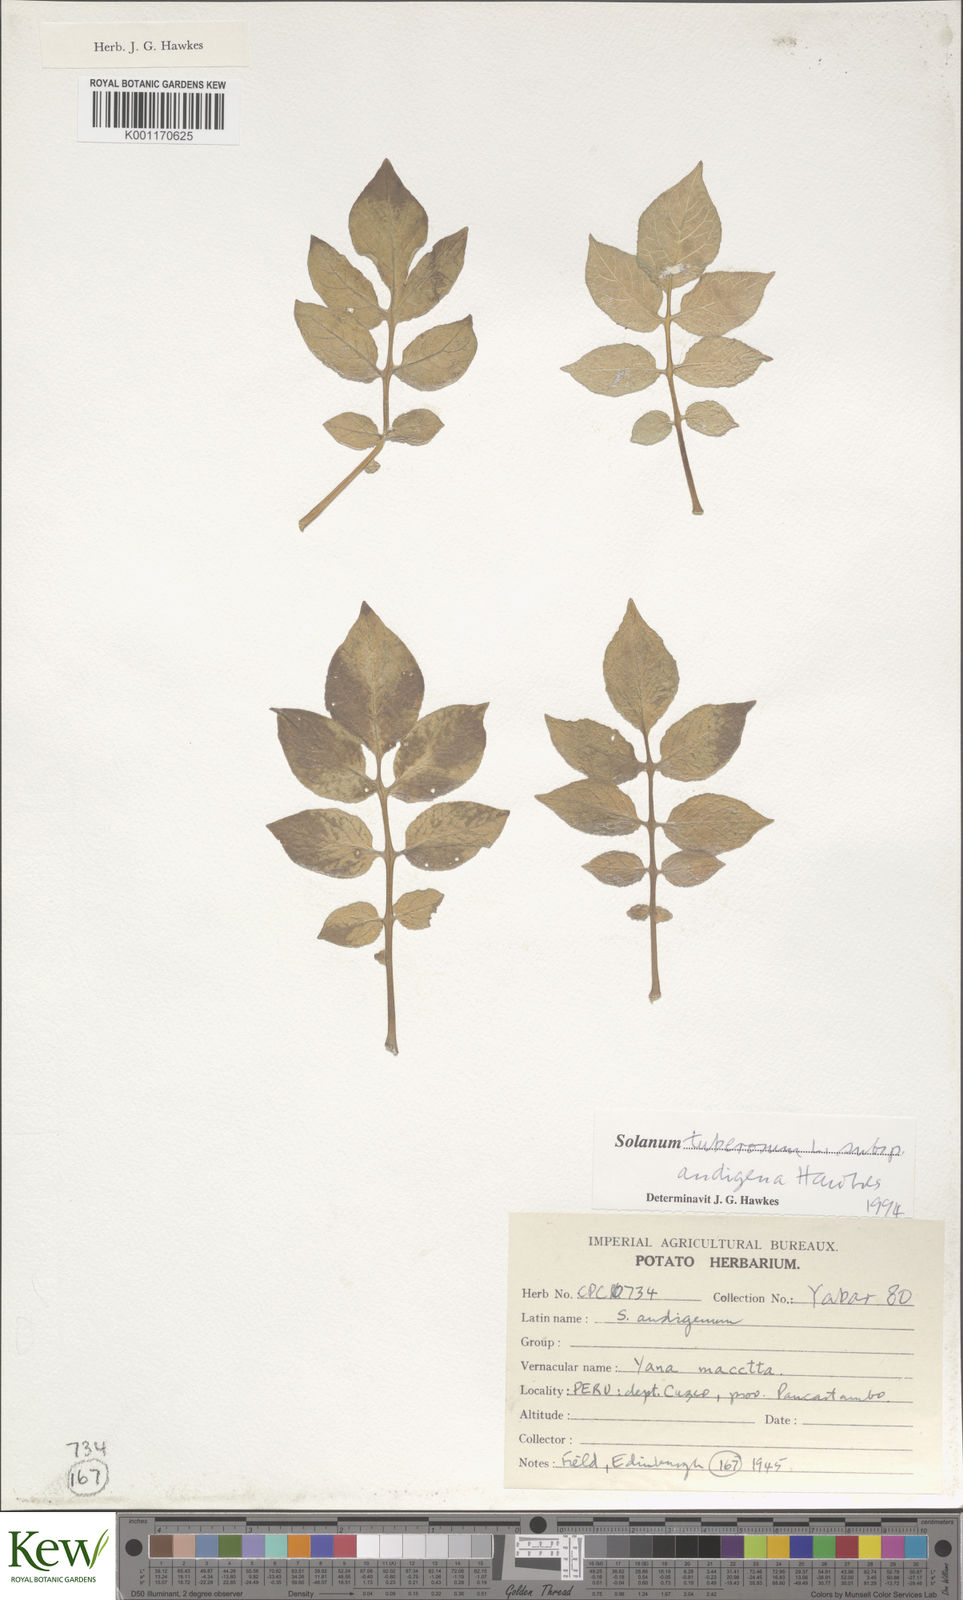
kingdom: Plantae
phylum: Tracheophyta
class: Magnoliopsida
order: Solanales
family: Solanaceae
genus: Solanum
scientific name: Solanum tuberosum
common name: Potato
